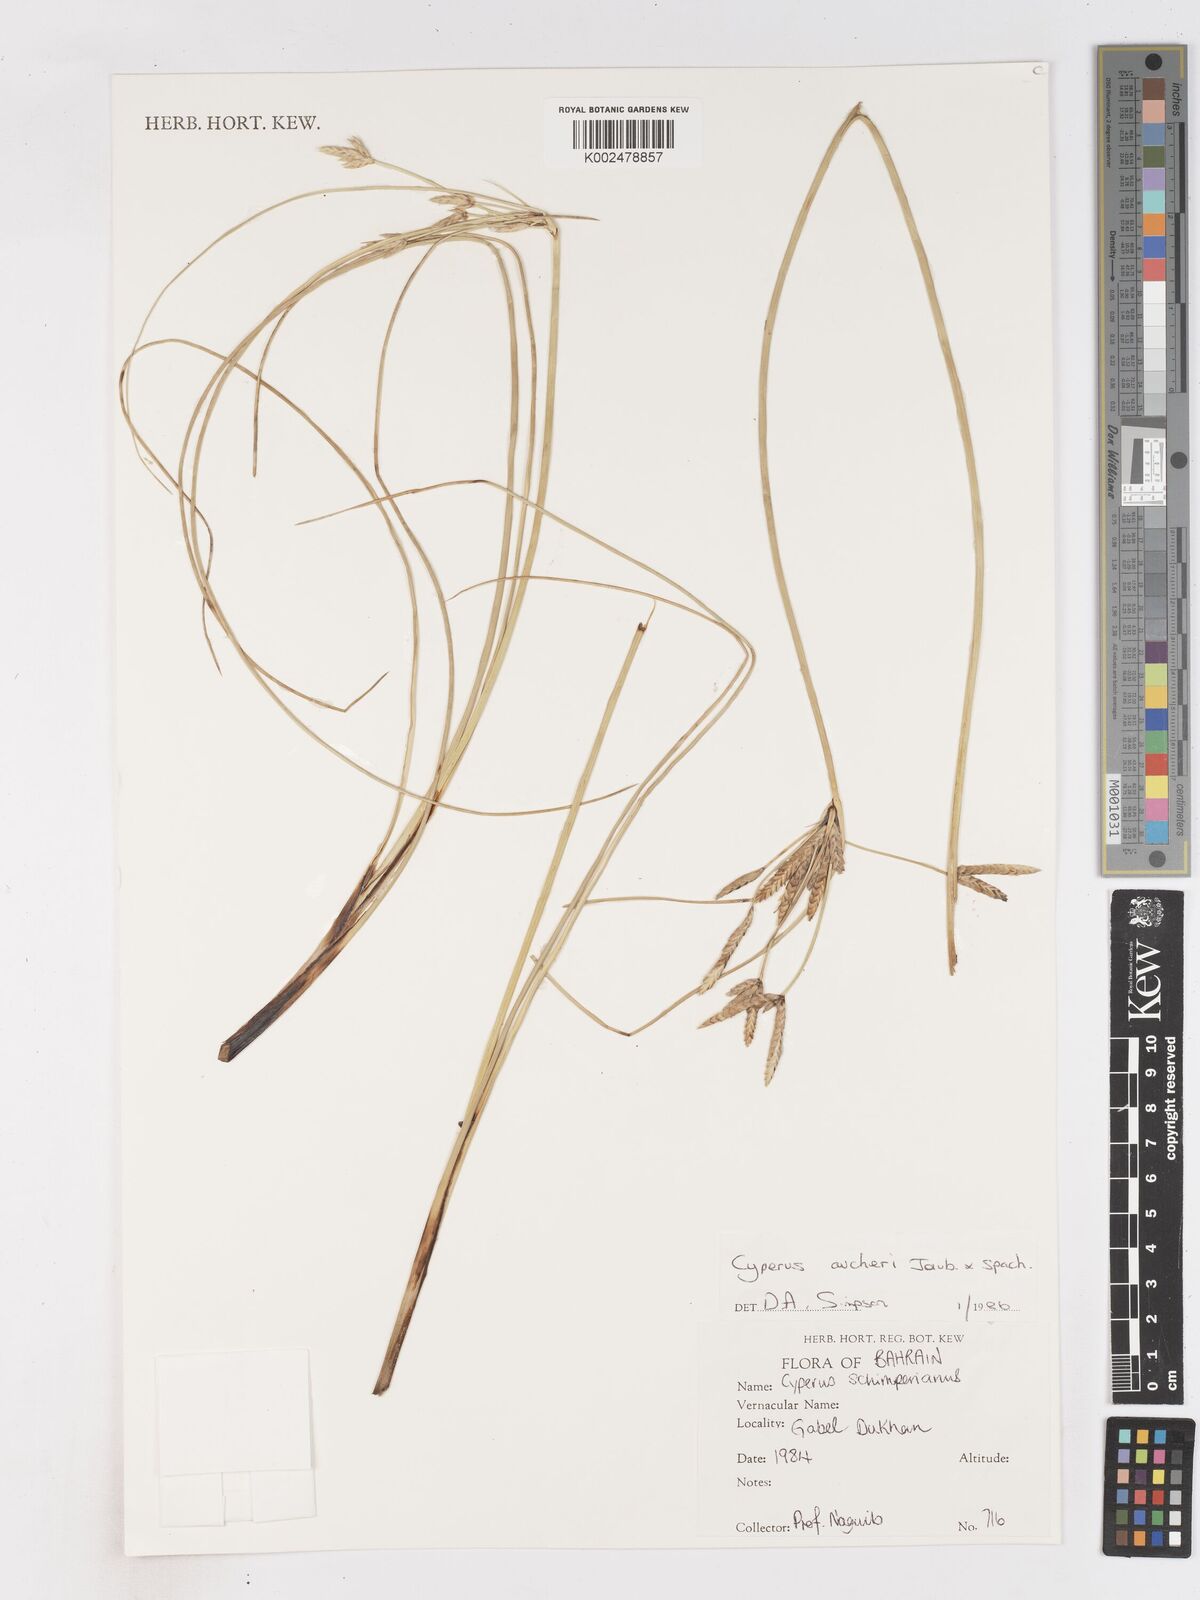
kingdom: Plantae
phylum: Tracheophyta
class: Liliopsida
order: Poales
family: Cyperaceae
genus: Cyperus
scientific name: Cyperus aucheri
